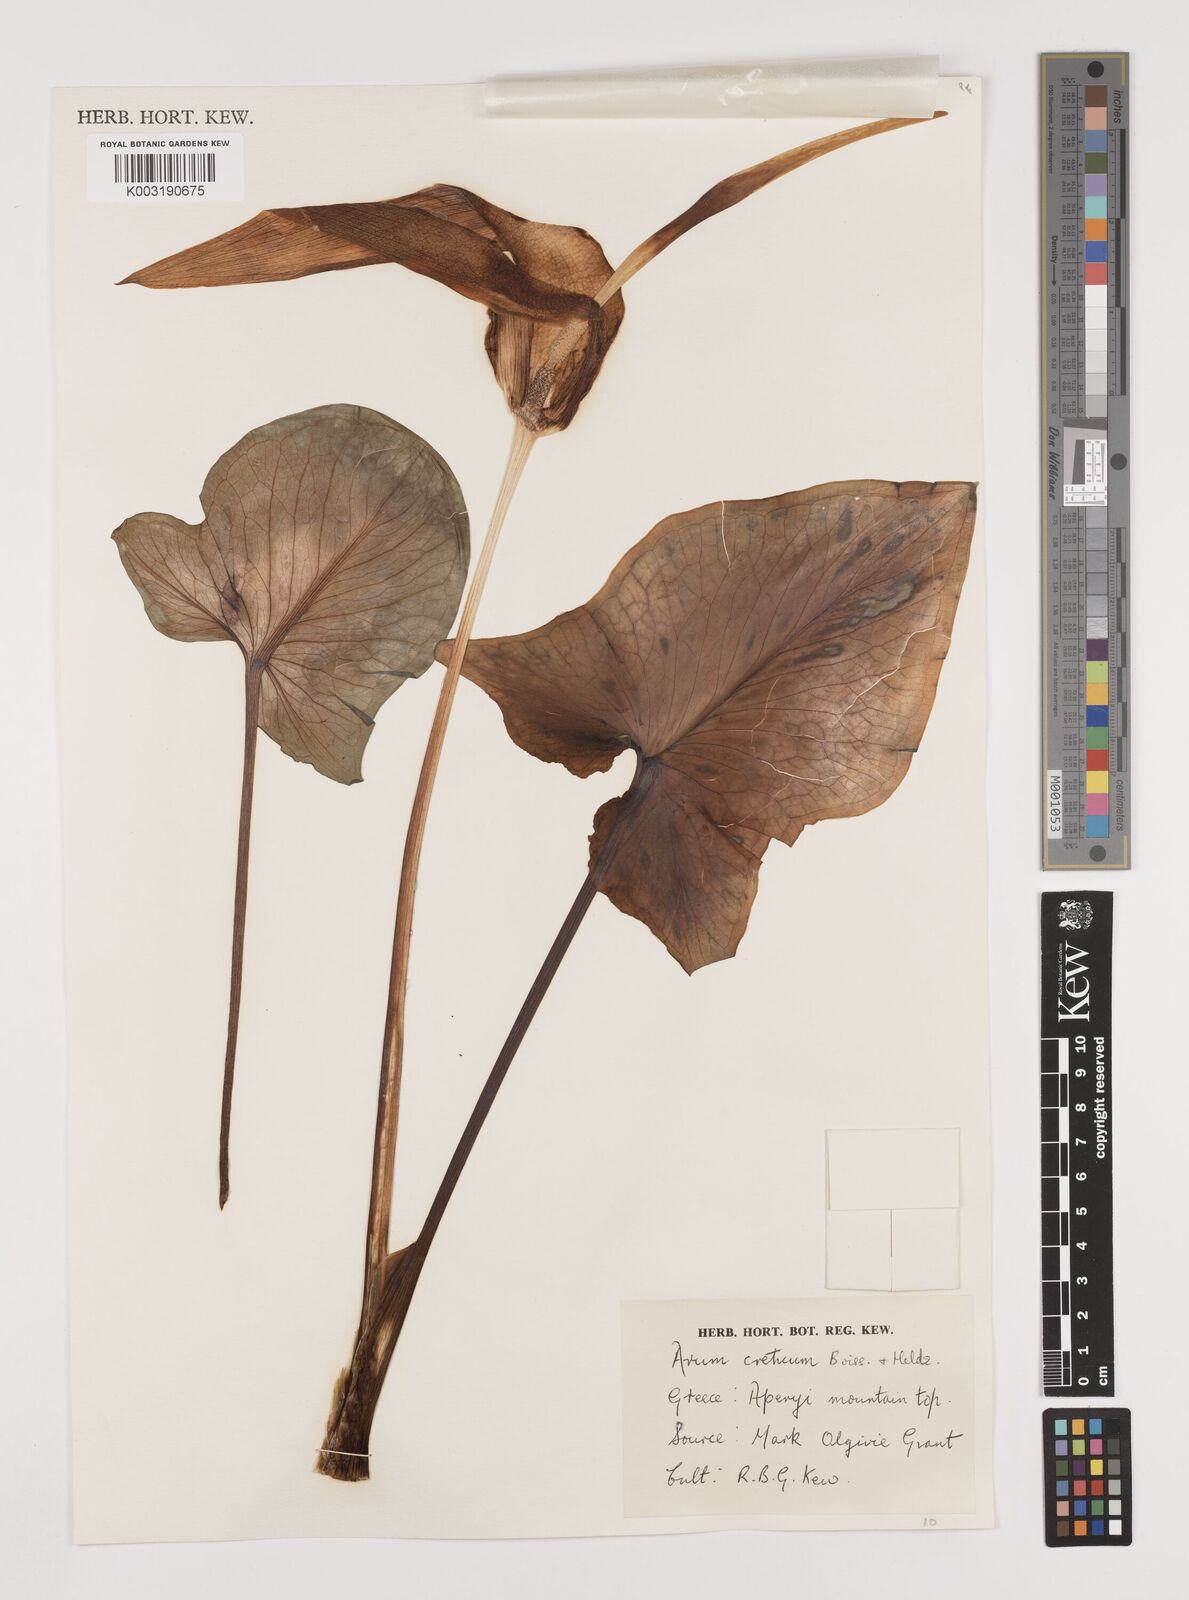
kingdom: Plantae
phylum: Tracheophyta
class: Liliopsida
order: Alismatales
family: Araceae
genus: Arum
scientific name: Arum creticum
